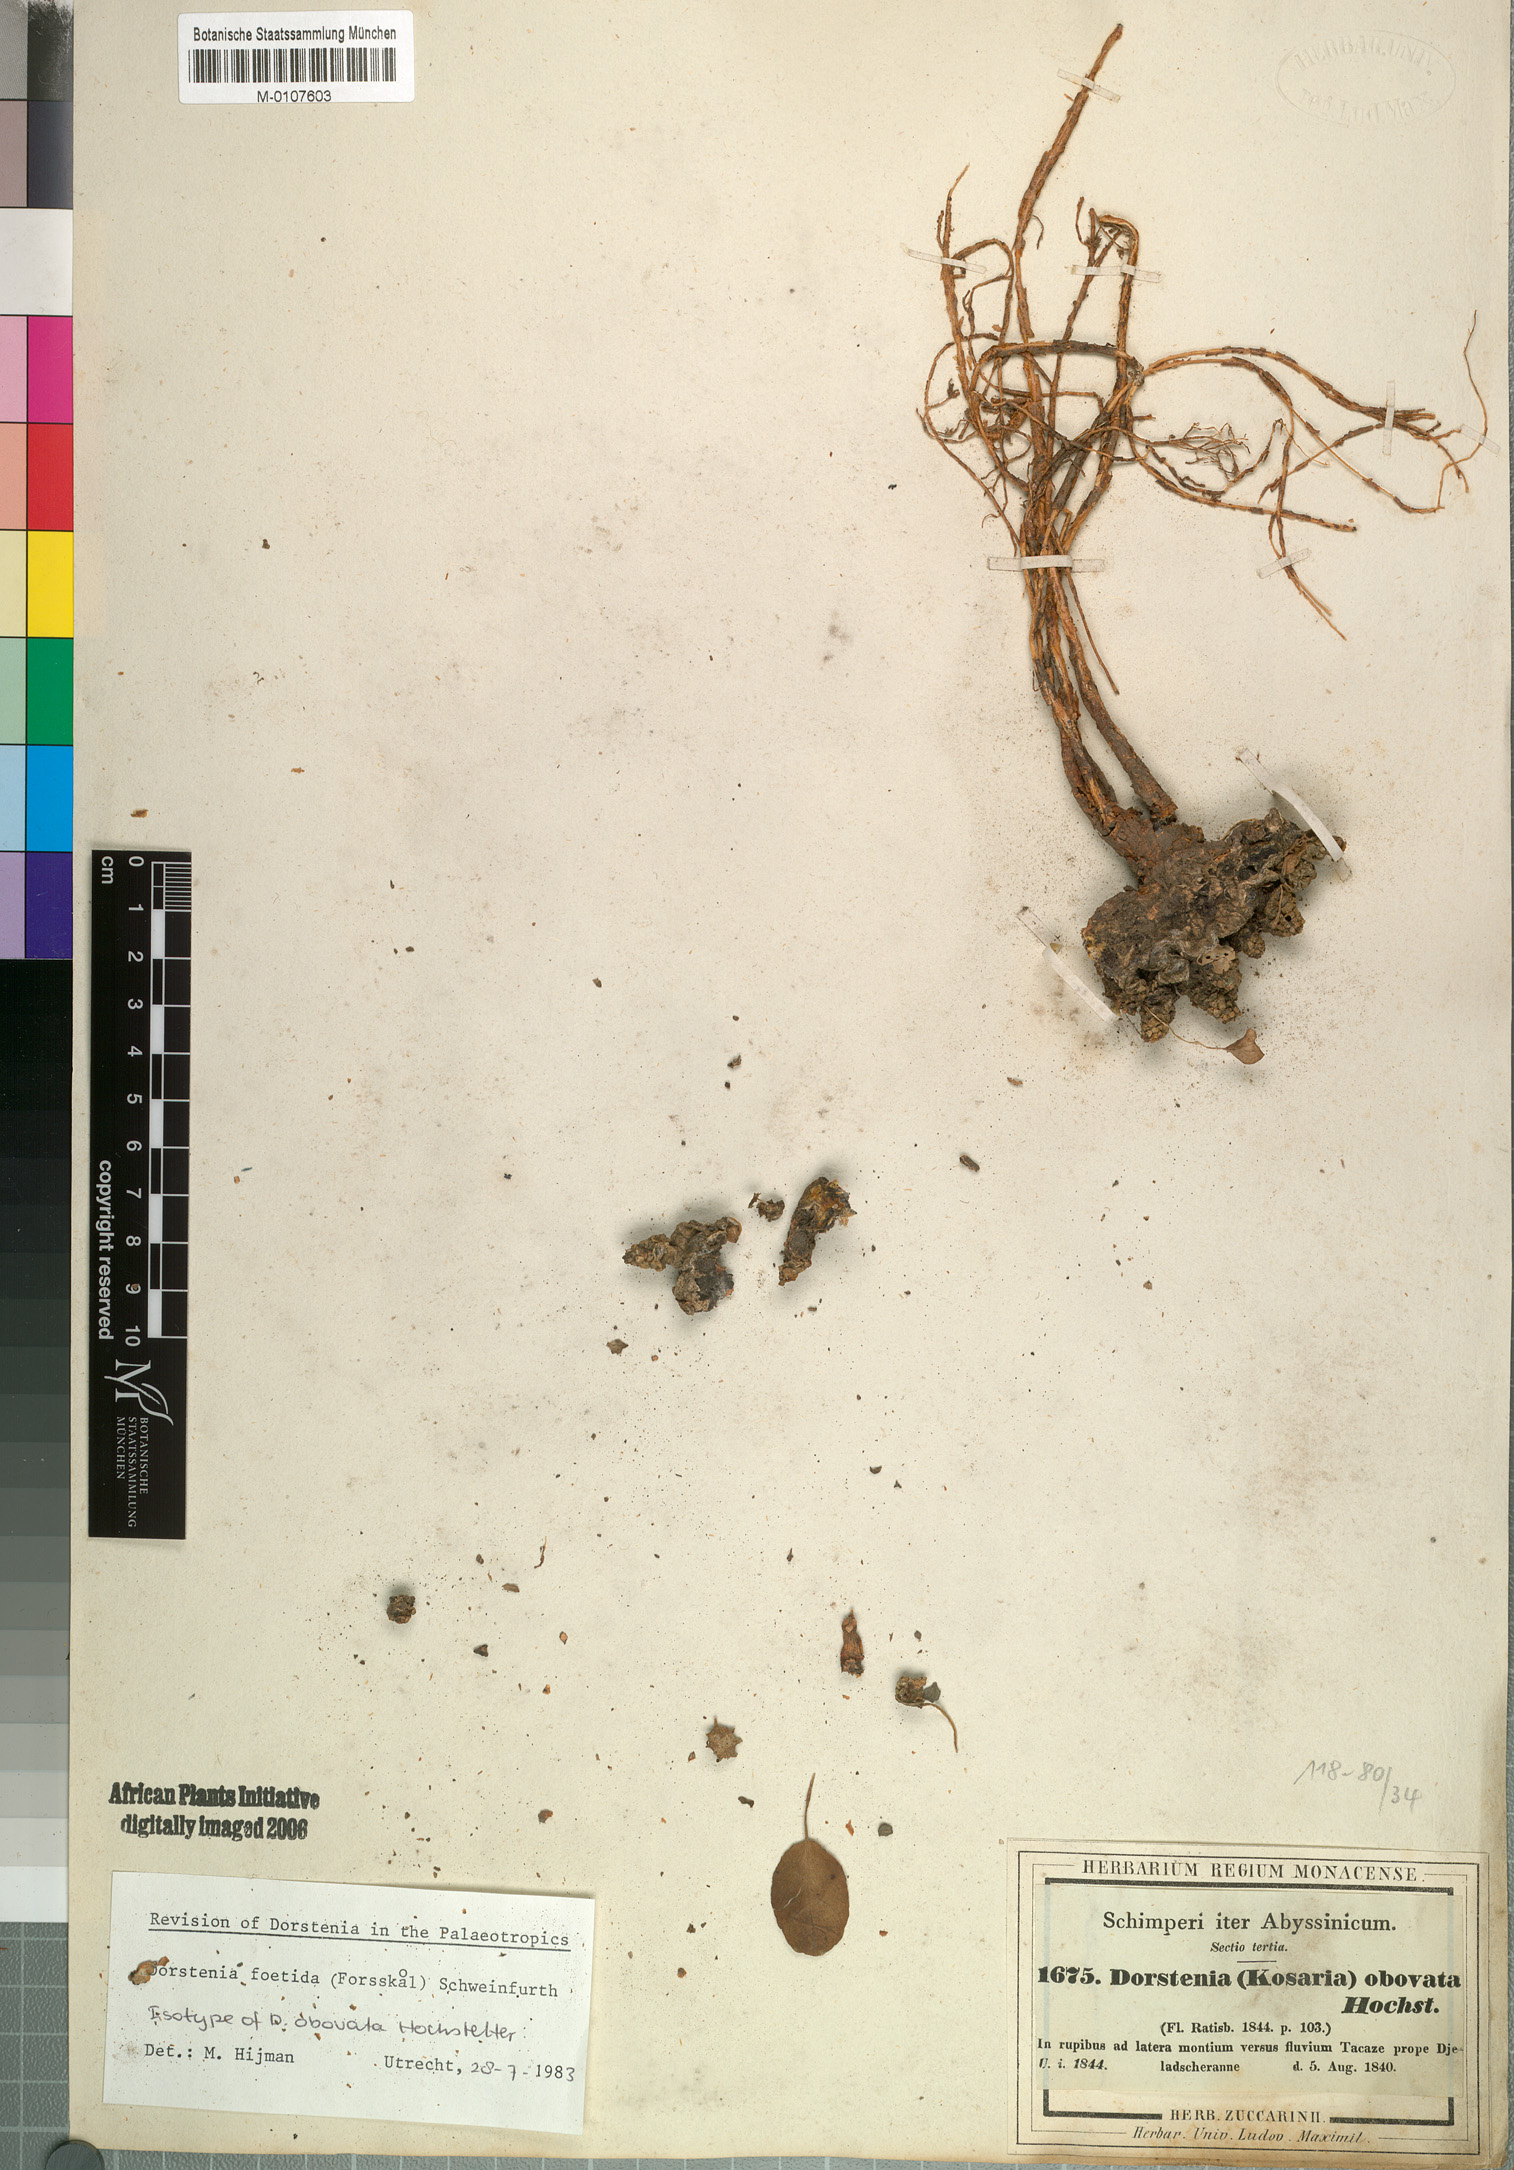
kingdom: Plantae
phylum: Tracheophyta
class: Magnoliopsida
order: Rosales
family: Moraceae
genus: Dorstenia
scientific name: Dorstenia foetida
